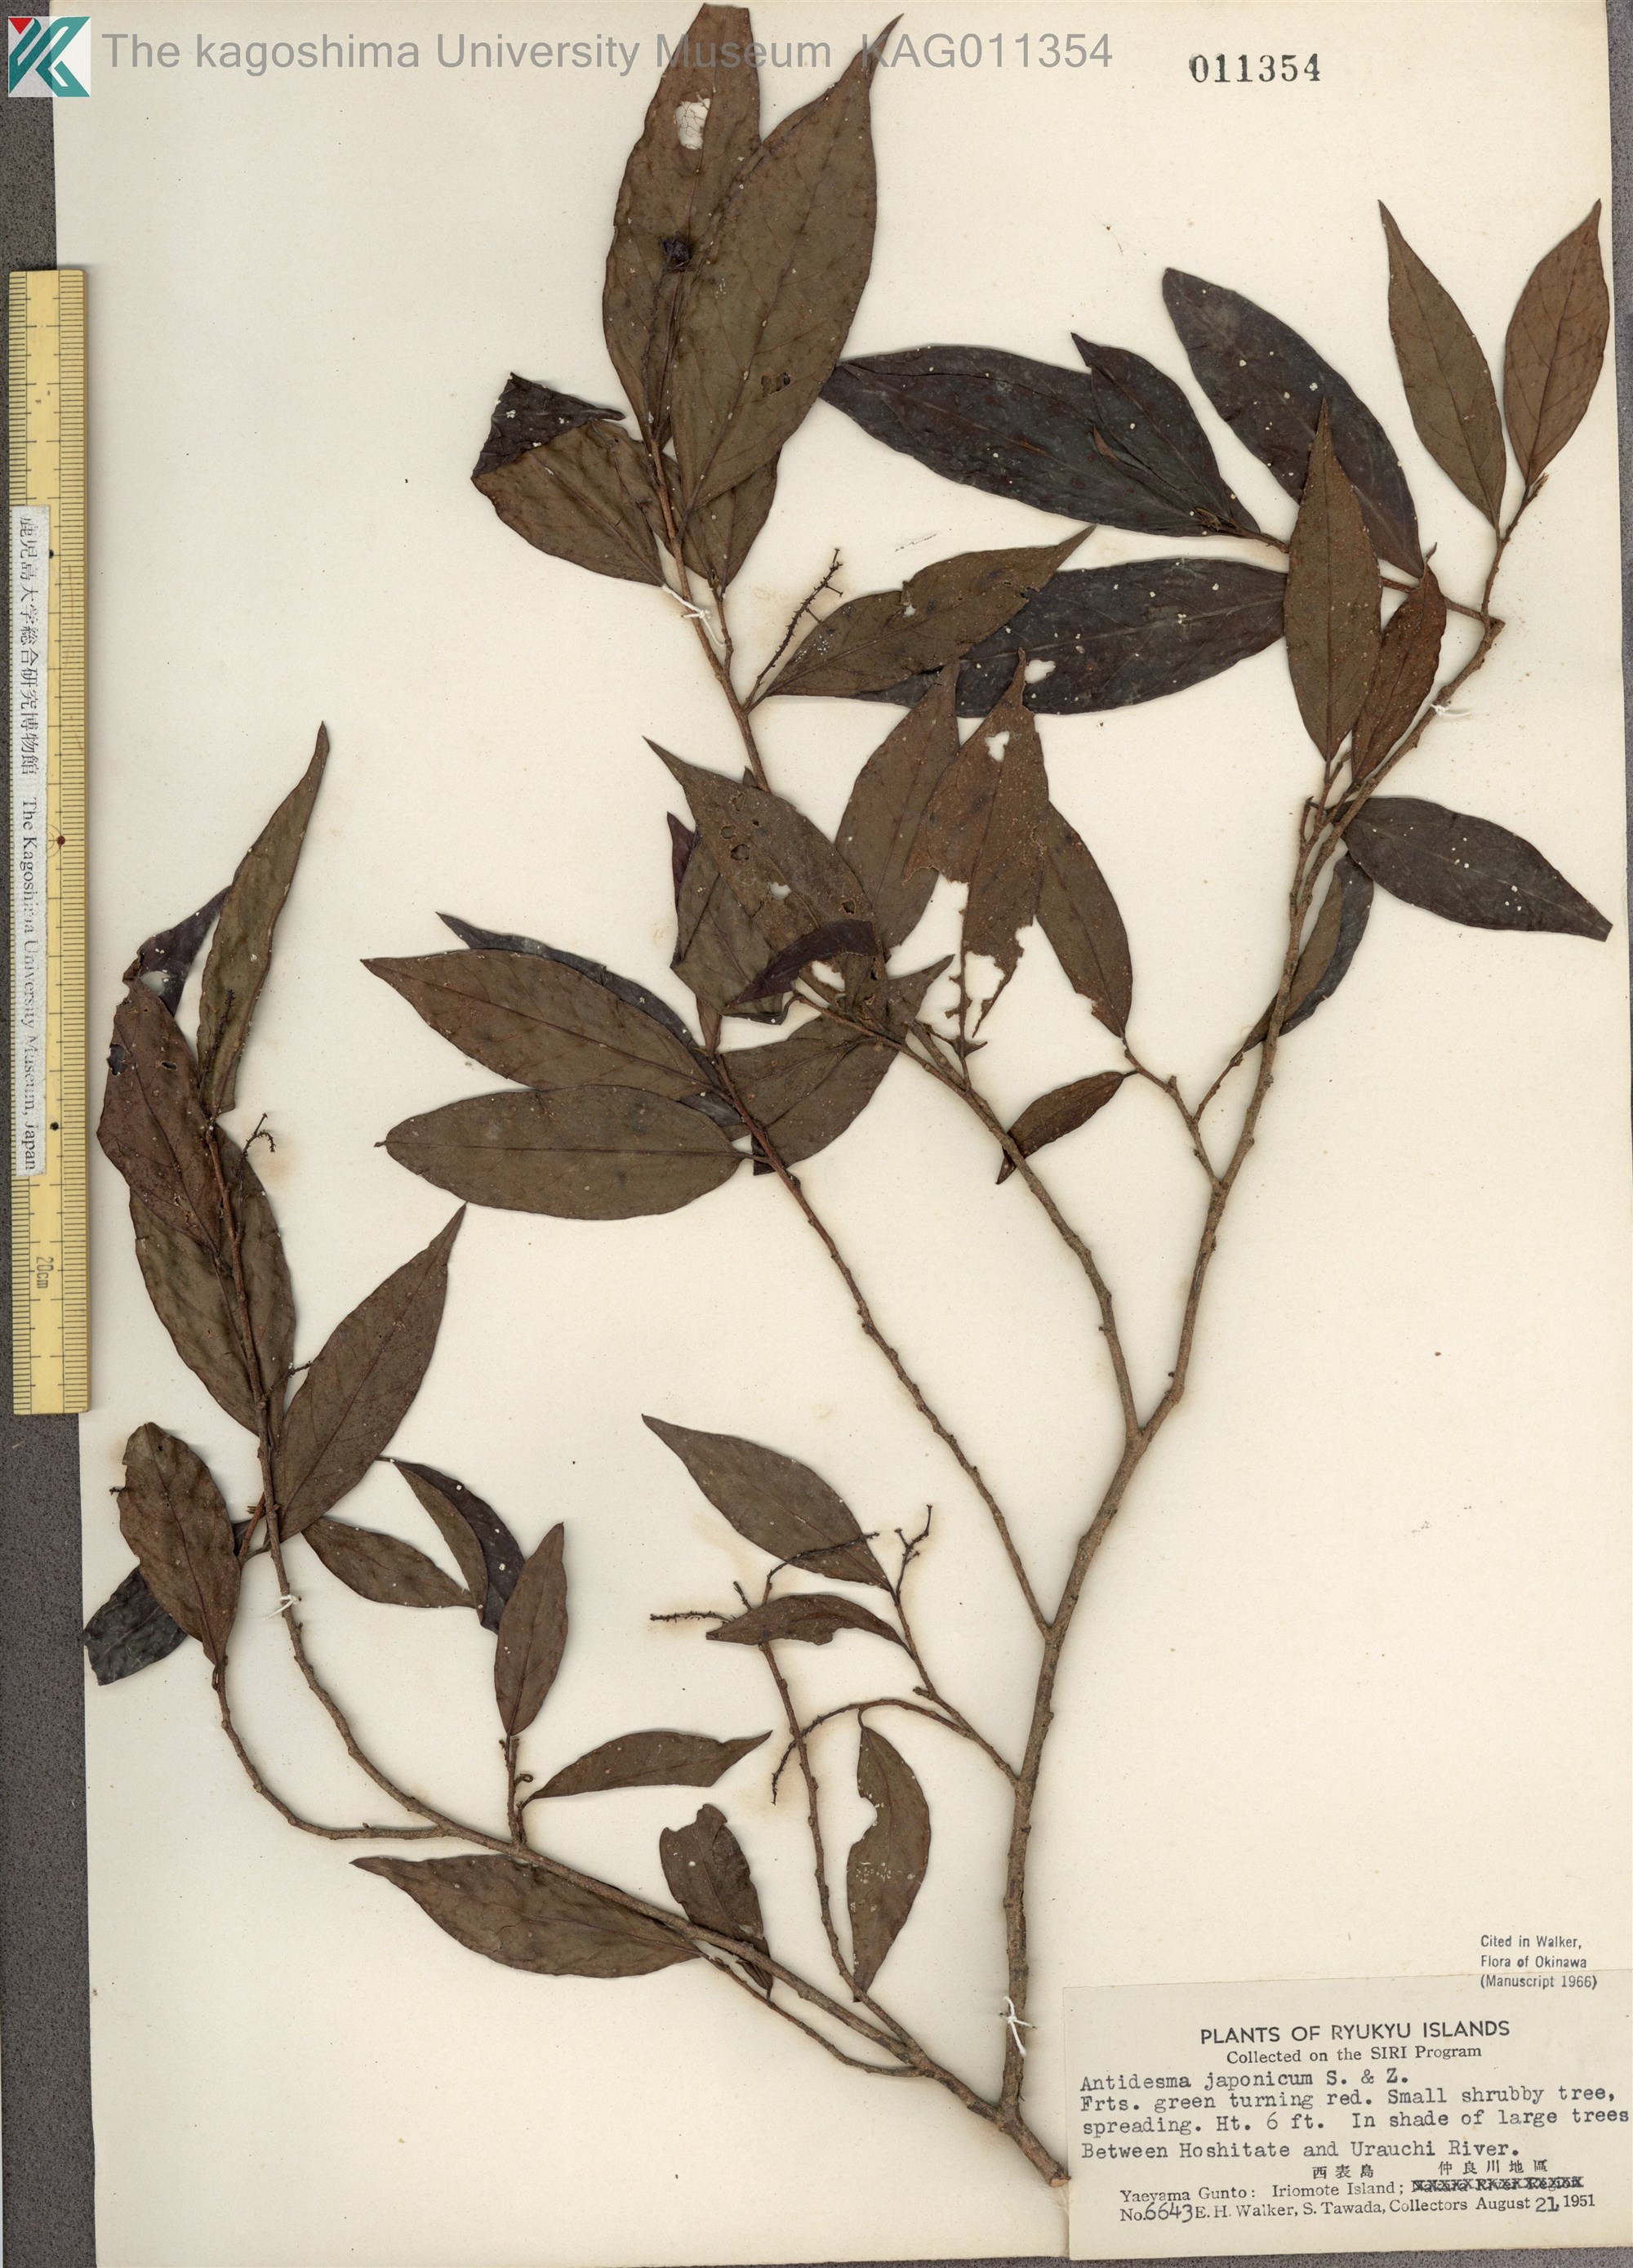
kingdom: Plantae
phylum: Tracheophyta
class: Magnoliopsida
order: Malpighiales
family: Phyllanthaceae
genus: Antidesma
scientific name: Antidesma japonicum
